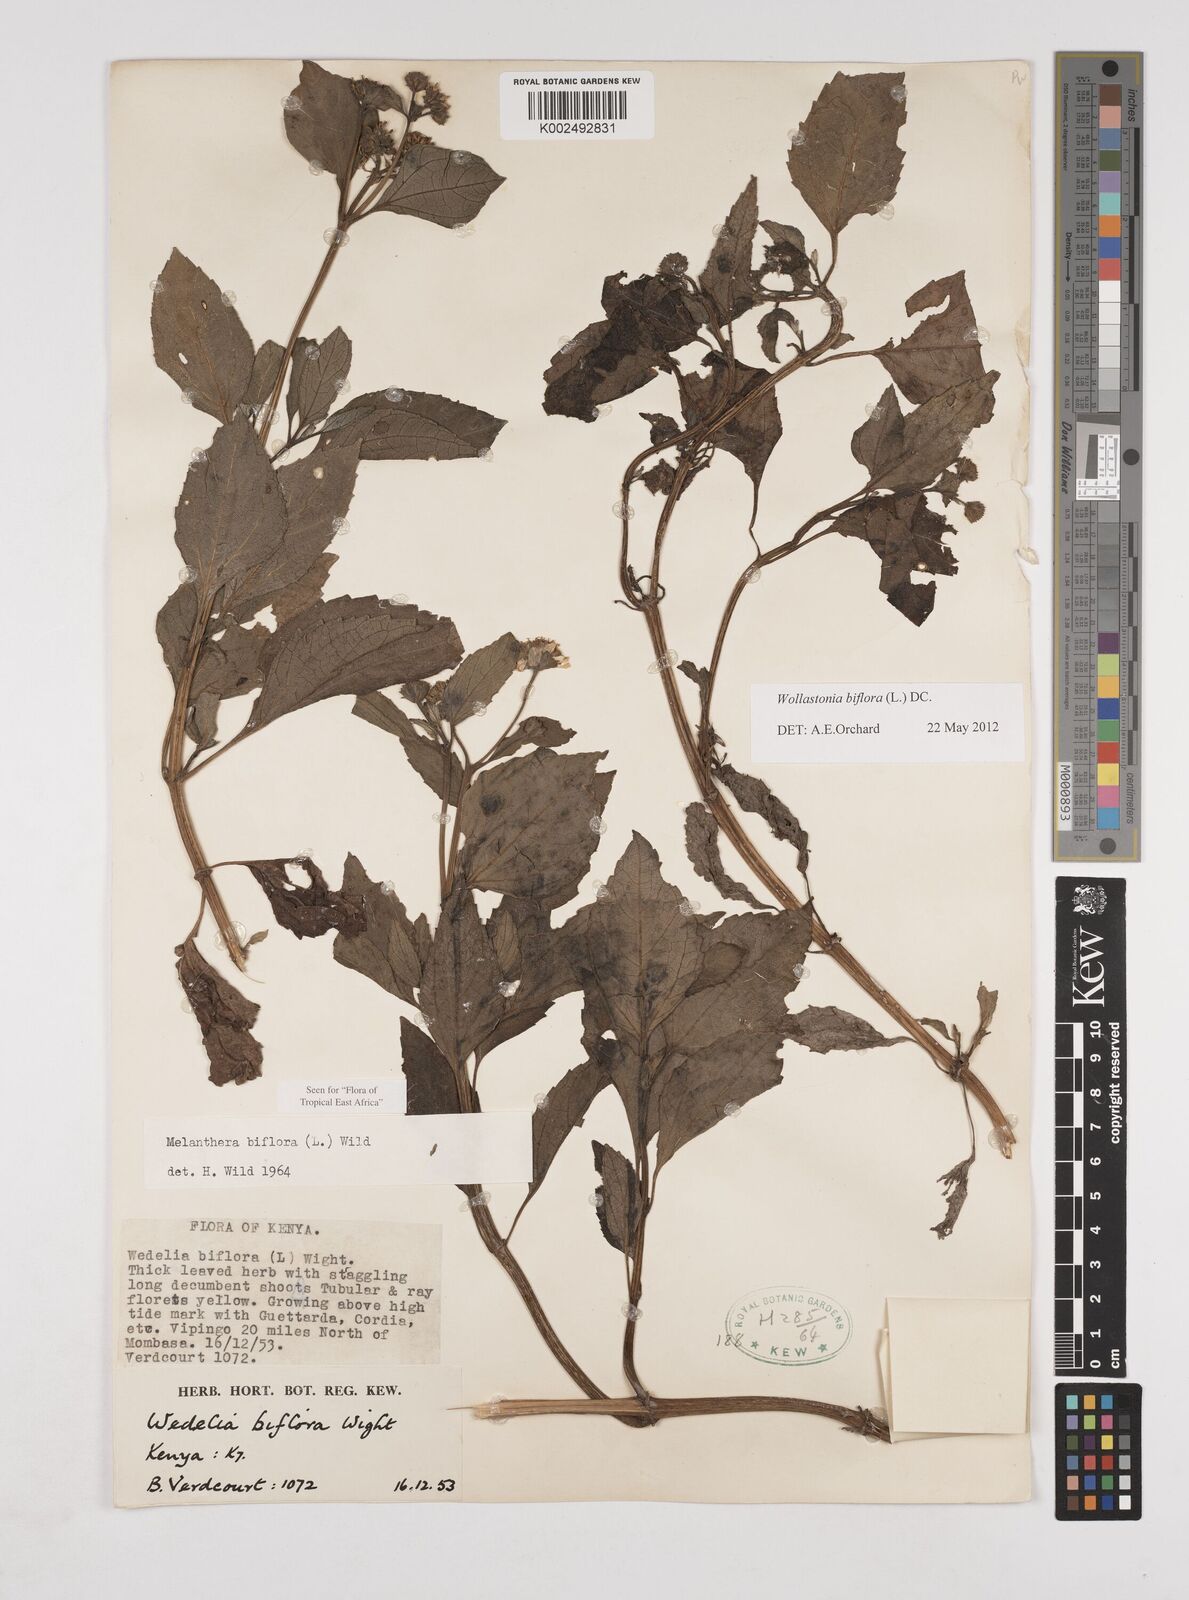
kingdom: Plantae
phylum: Tracheophyta
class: Magnoliopsida
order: Asterales
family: Asteraceae
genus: Wollastonia
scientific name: Wollastonia biflora
